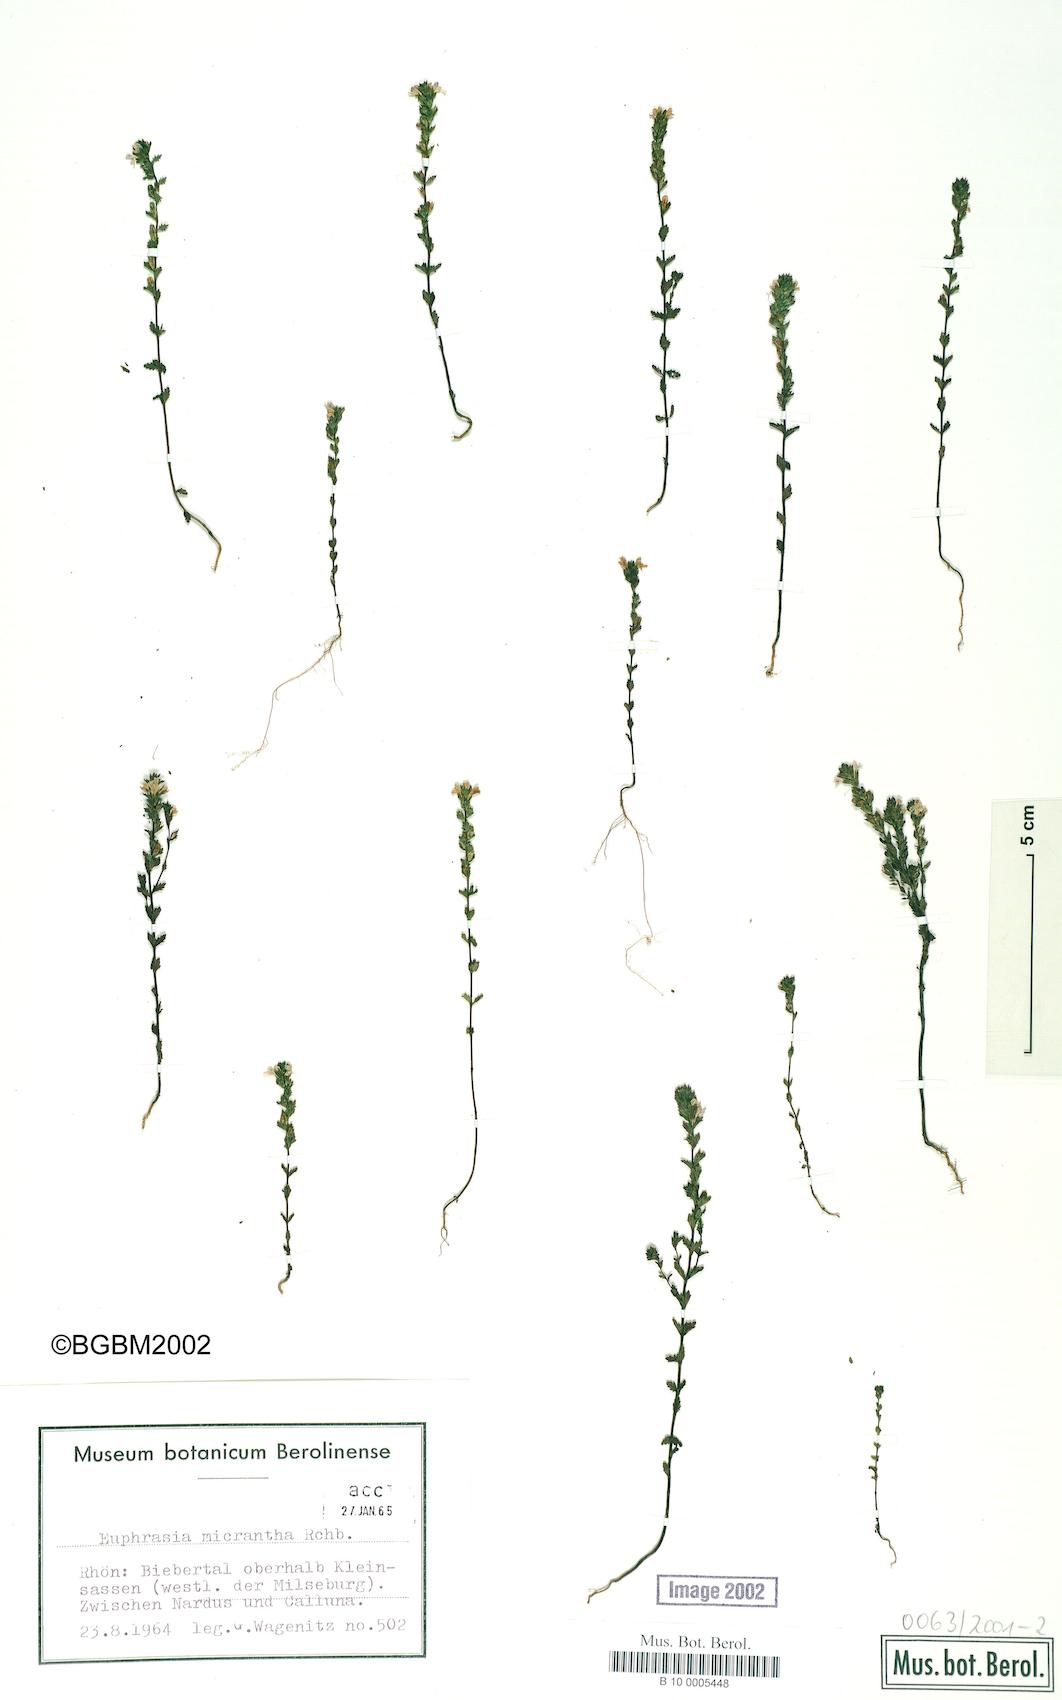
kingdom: Plantae
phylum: Tracheophyta
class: Magnoliopsida
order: Lamiales
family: Orobanchaceae
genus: Euphrasia
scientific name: Euphrasia micrantha
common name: Northern eyebright
